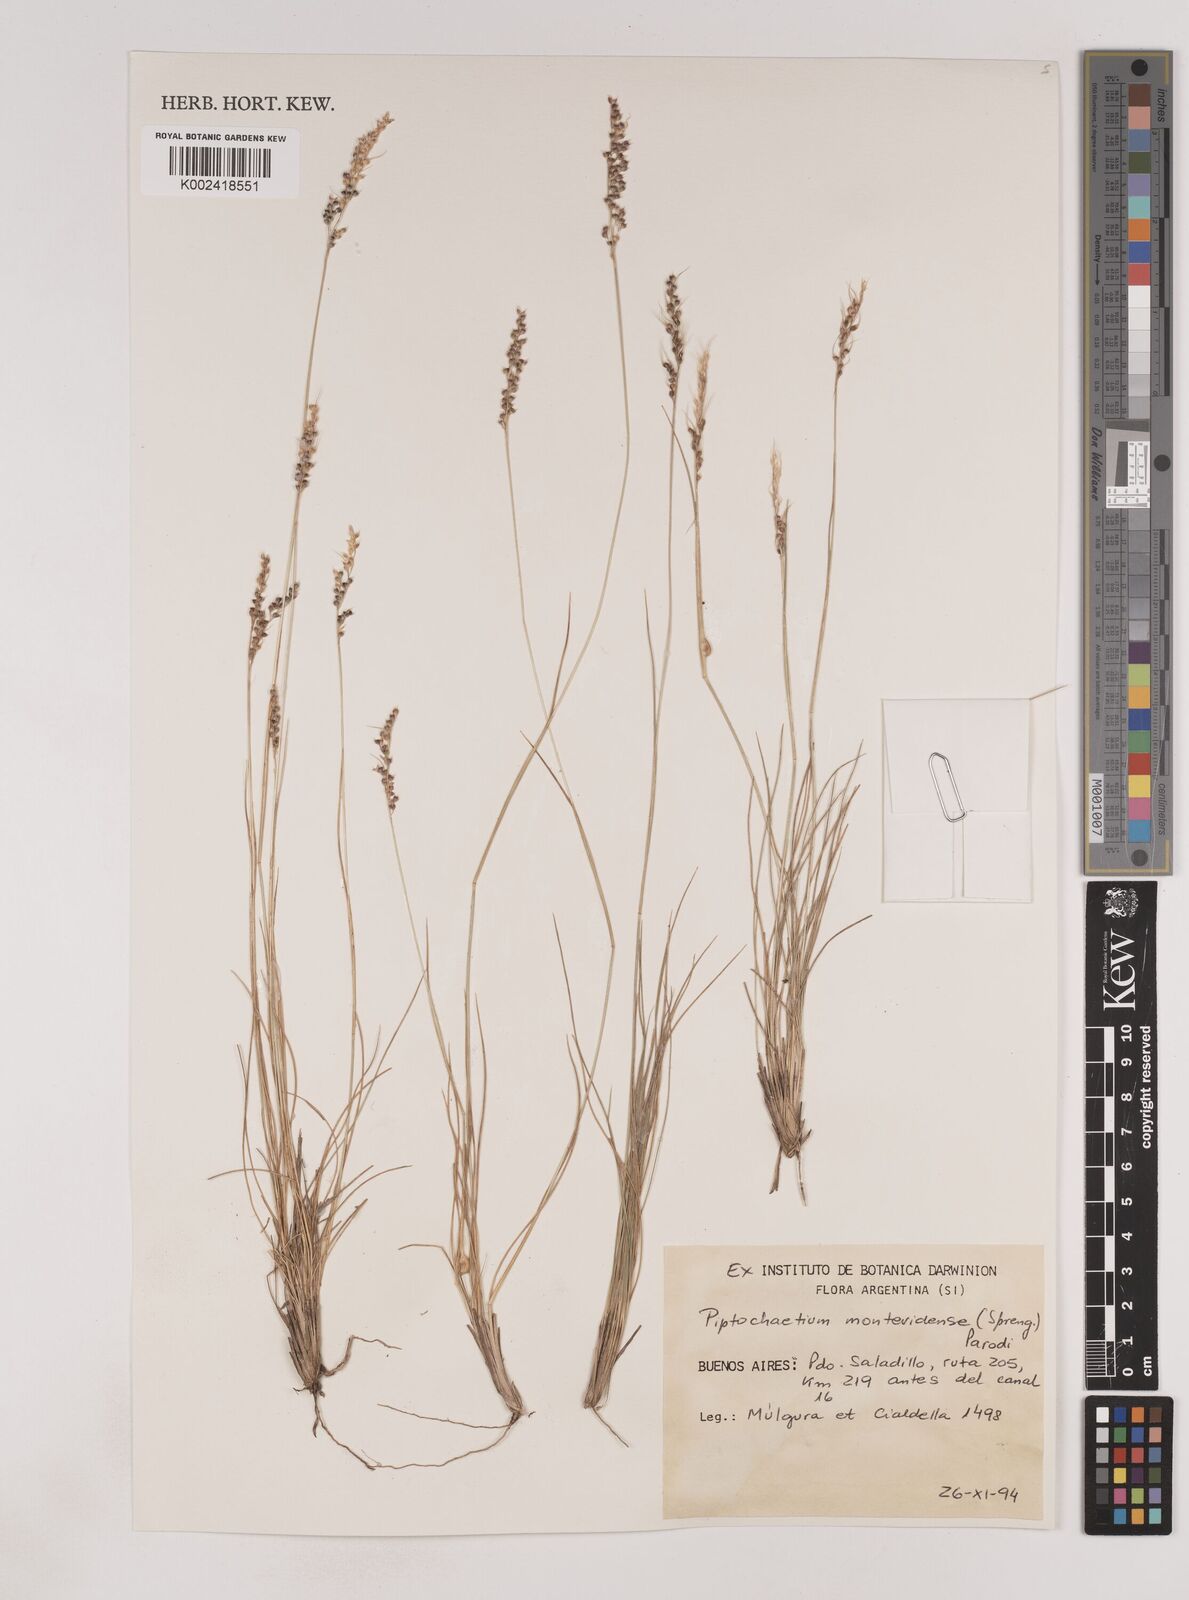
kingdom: Plantae
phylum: Tracheophyta
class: Liliopsida
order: Poales
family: Poaceae
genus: Piptochaetium
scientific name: Piptochaetium montevidense
